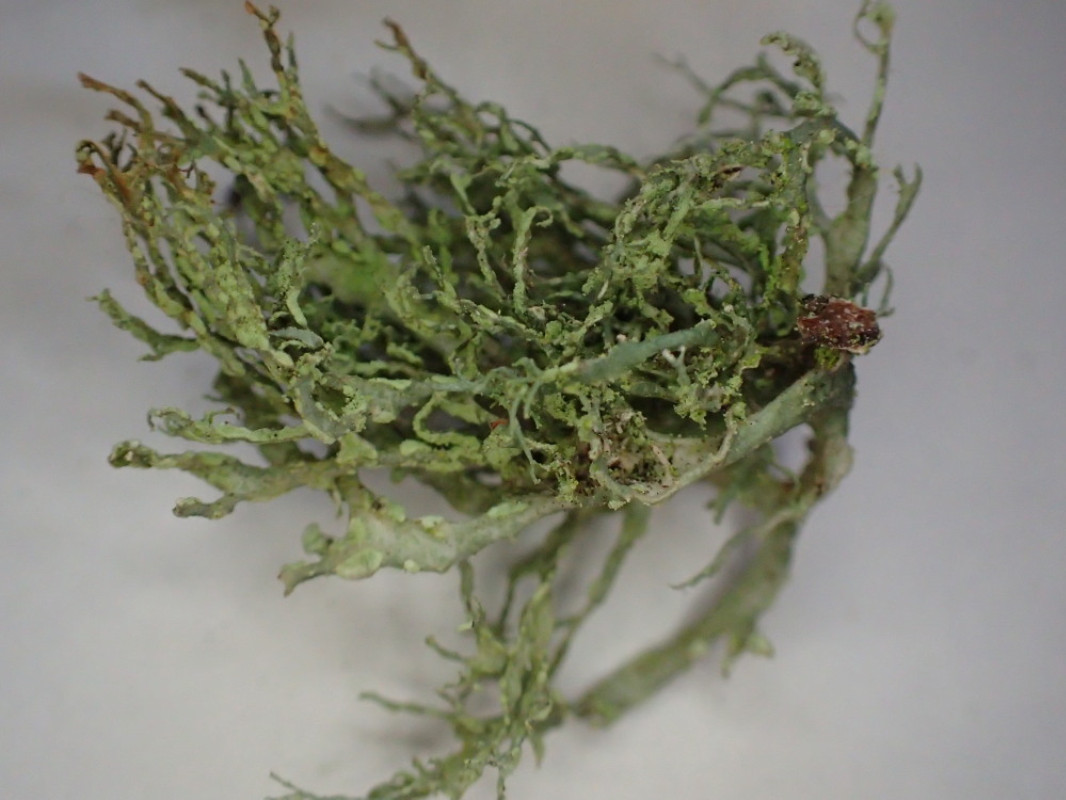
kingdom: Fungi
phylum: Ascomycota
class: Lecanoromycetes
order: Lecanorales
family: Ramalinaceae
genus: Ramalina
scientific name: Ramalina farinacea
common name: melet grenlav
